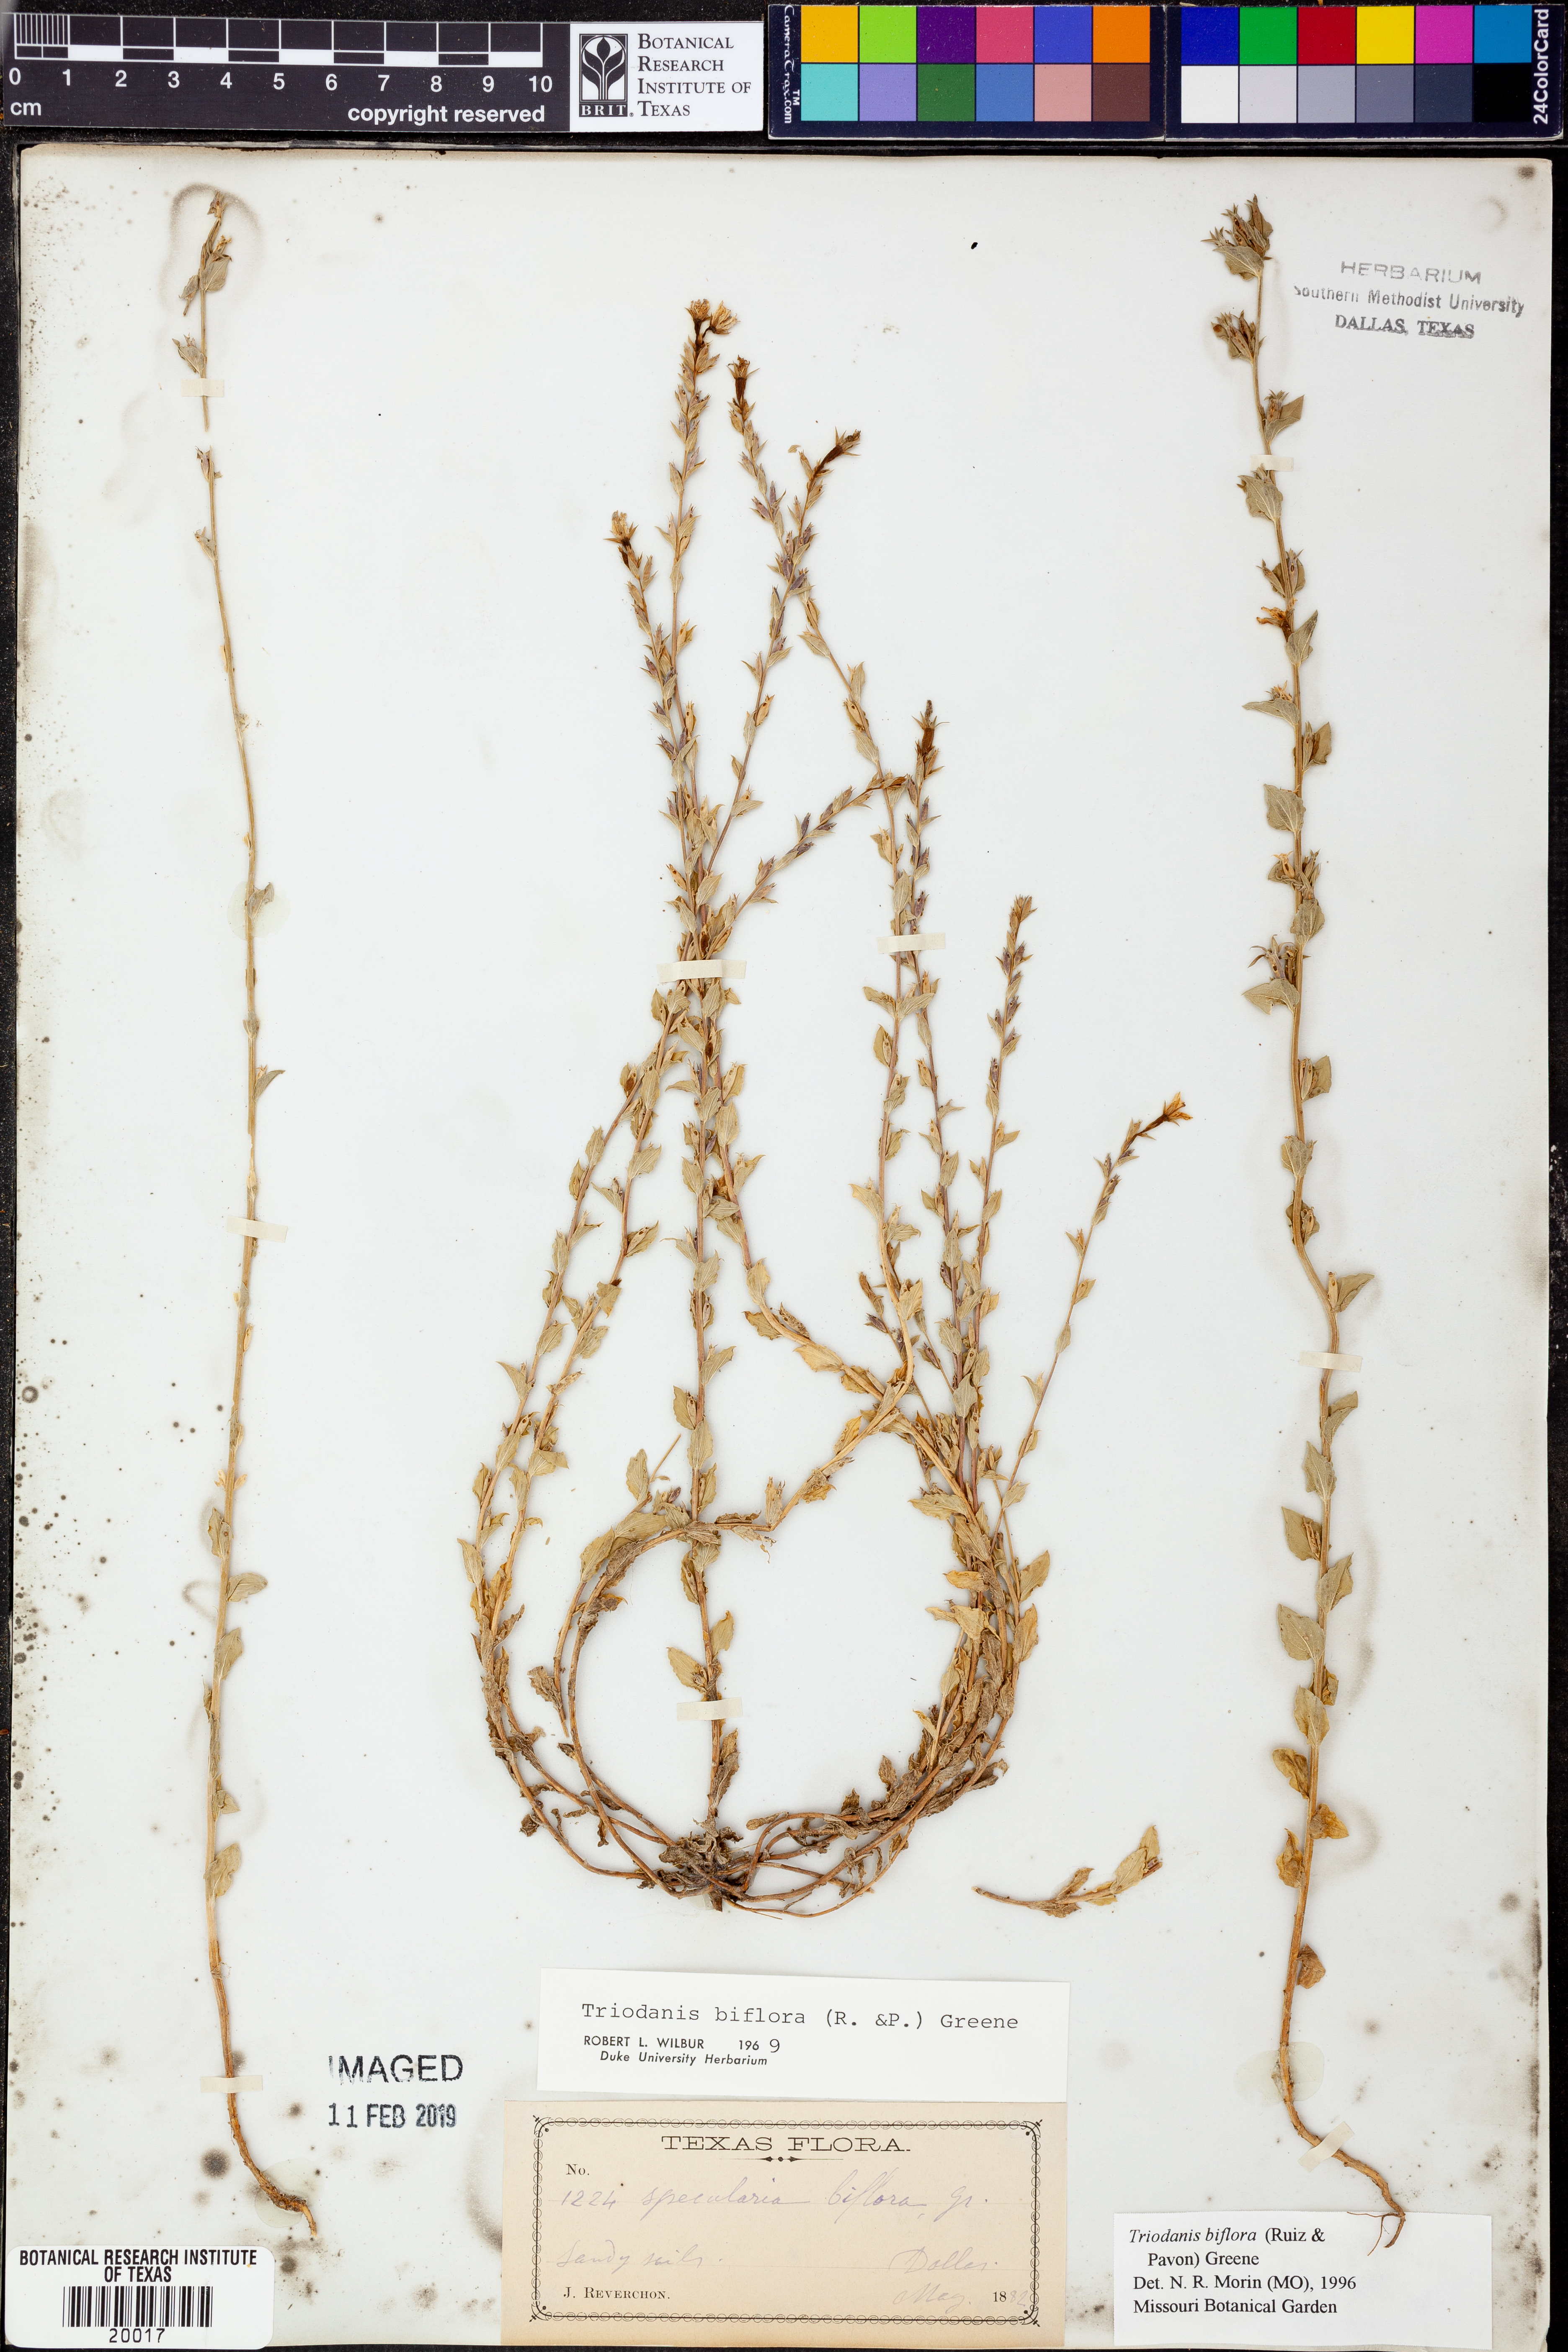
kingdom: Plantae
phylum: Tracheophyta
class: Magnoliopsida
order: Asterales
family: Campanulaceae
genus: Triodanis
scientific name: Triodanis perfoliata
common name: Clasping venus' looking-glass
